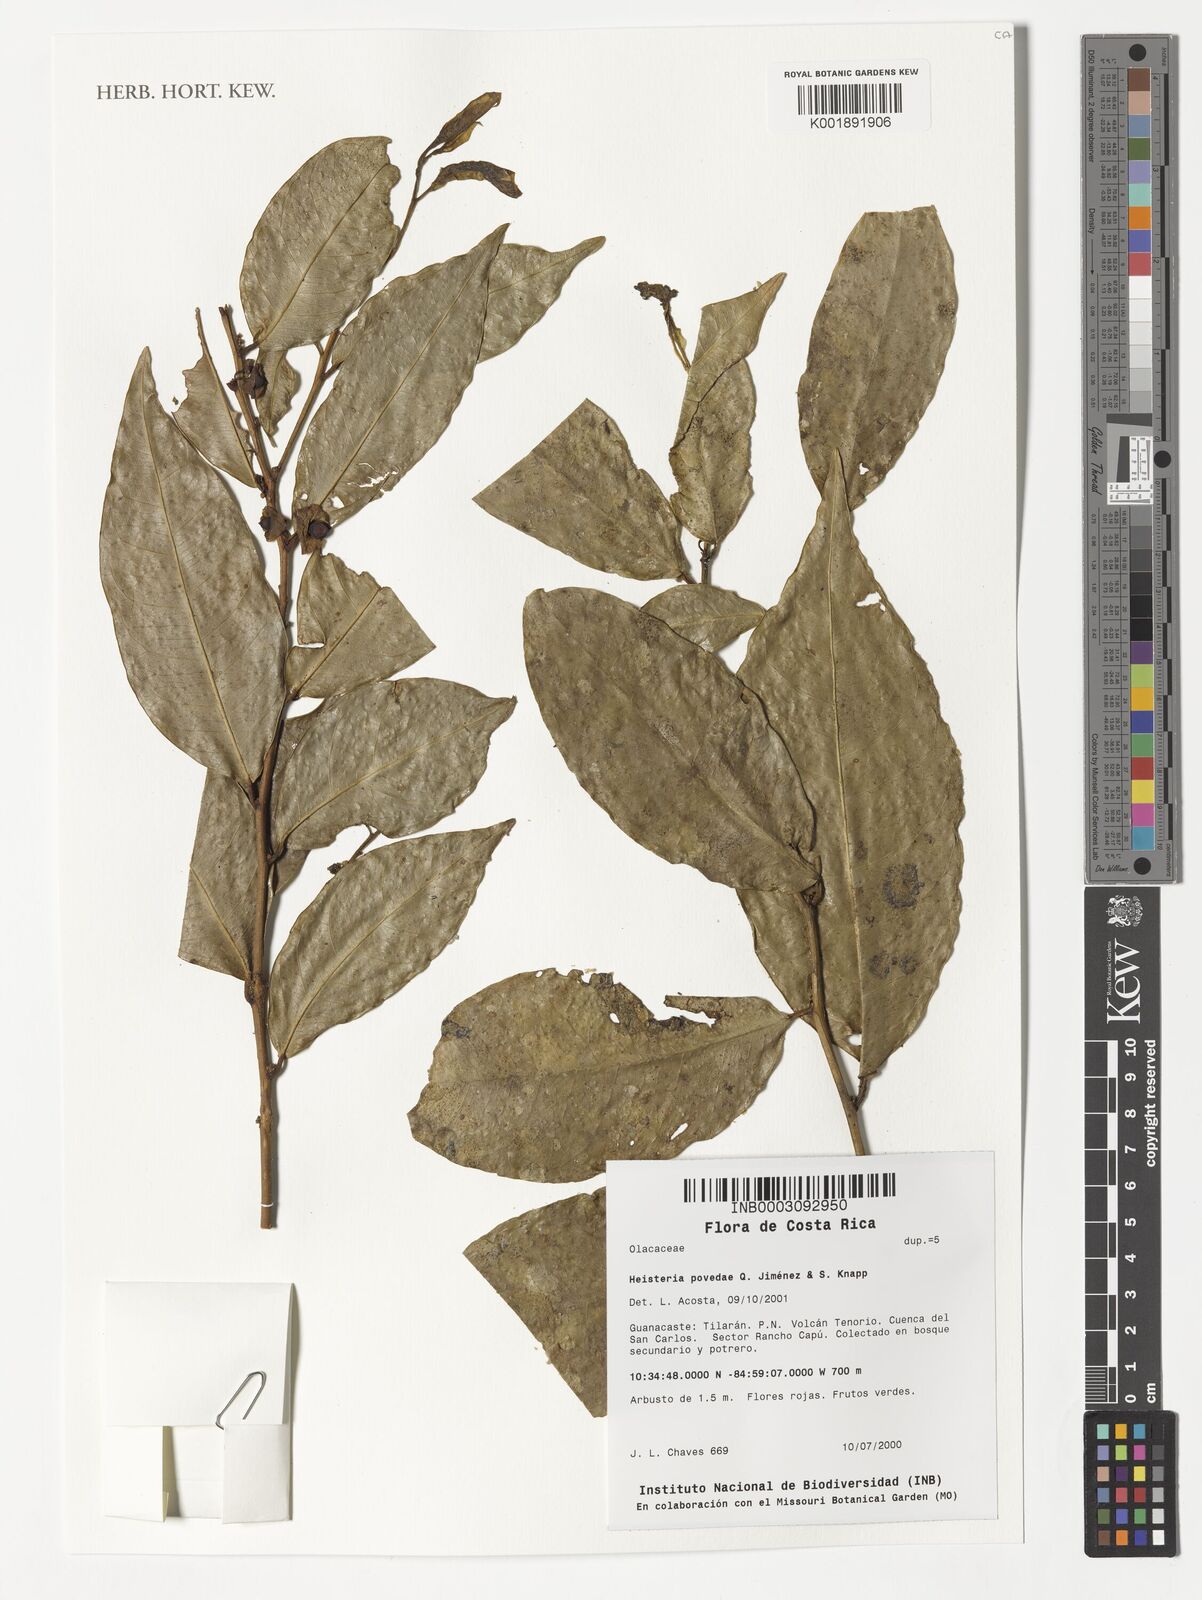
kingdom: Plantae
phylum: Tracheophyta
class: Magnoliopsida
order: Santalales
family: Erythropalaceae
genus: Heisteria
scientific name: Heisteria povedae
